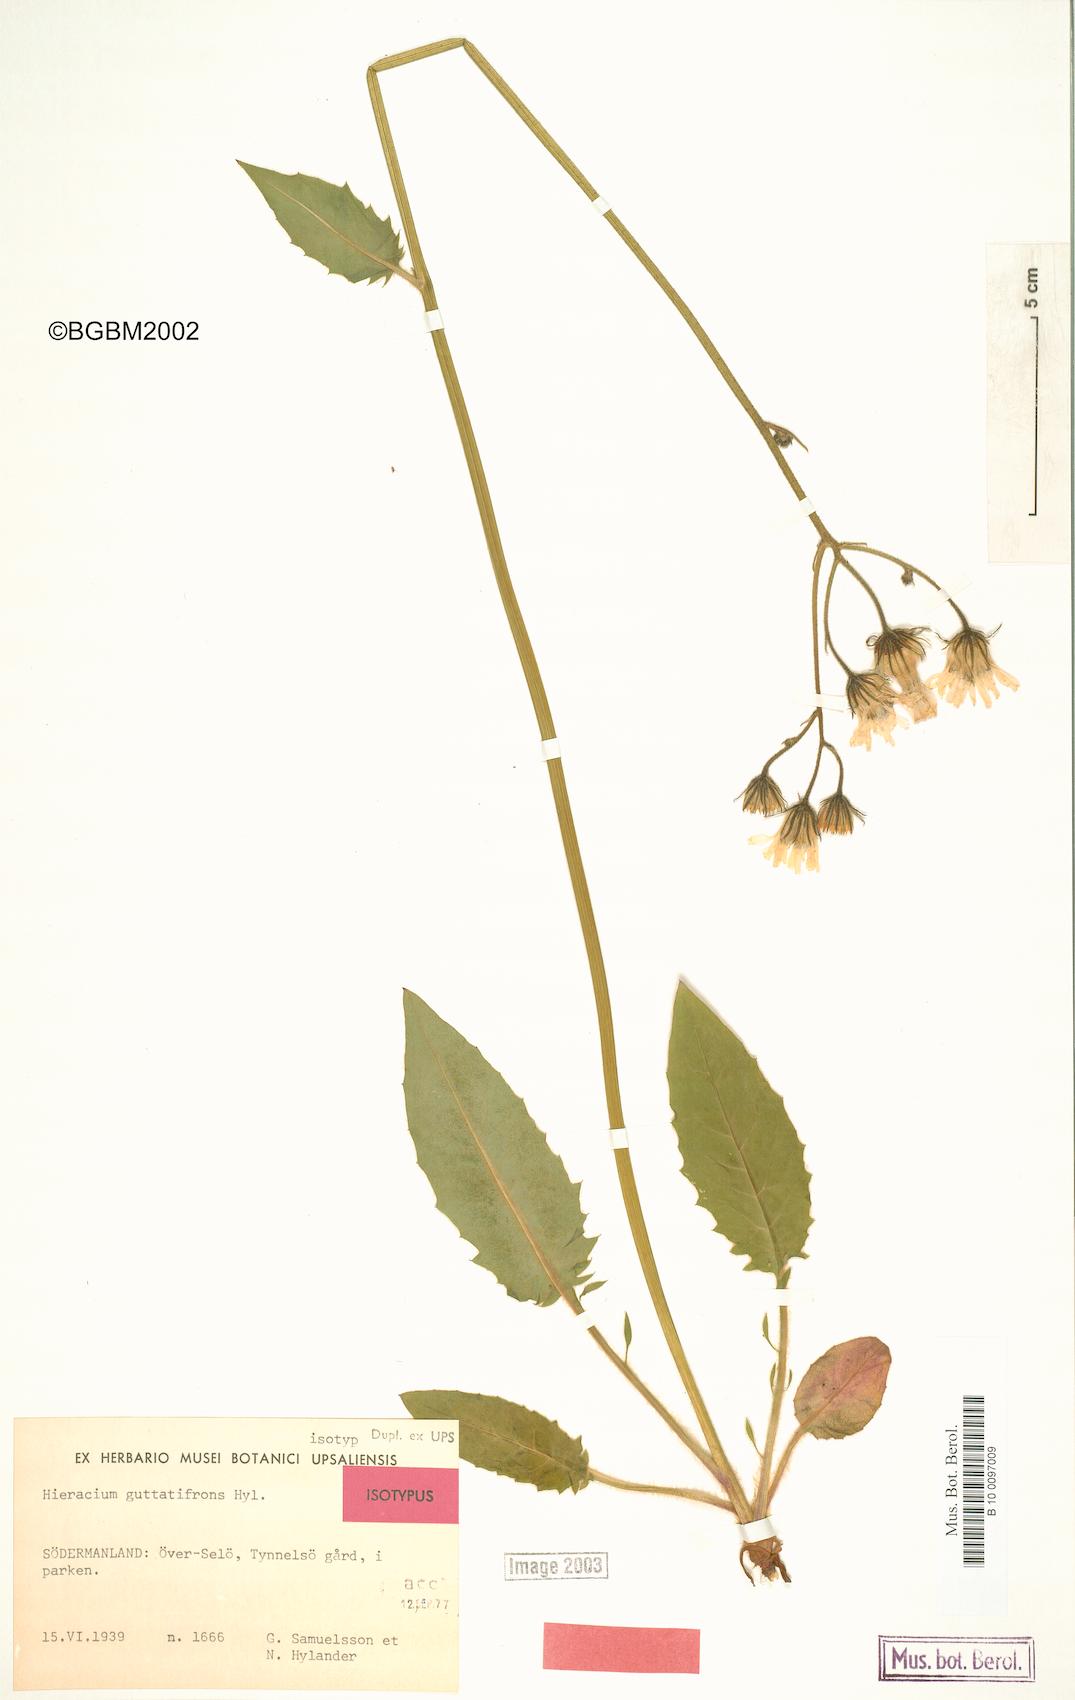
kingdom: Plantae
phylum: Tracheophyta
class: Magnoliopsida
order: Asterales
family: Asteraceae
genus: Hieracium
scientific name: Hieracium guttatifrons
